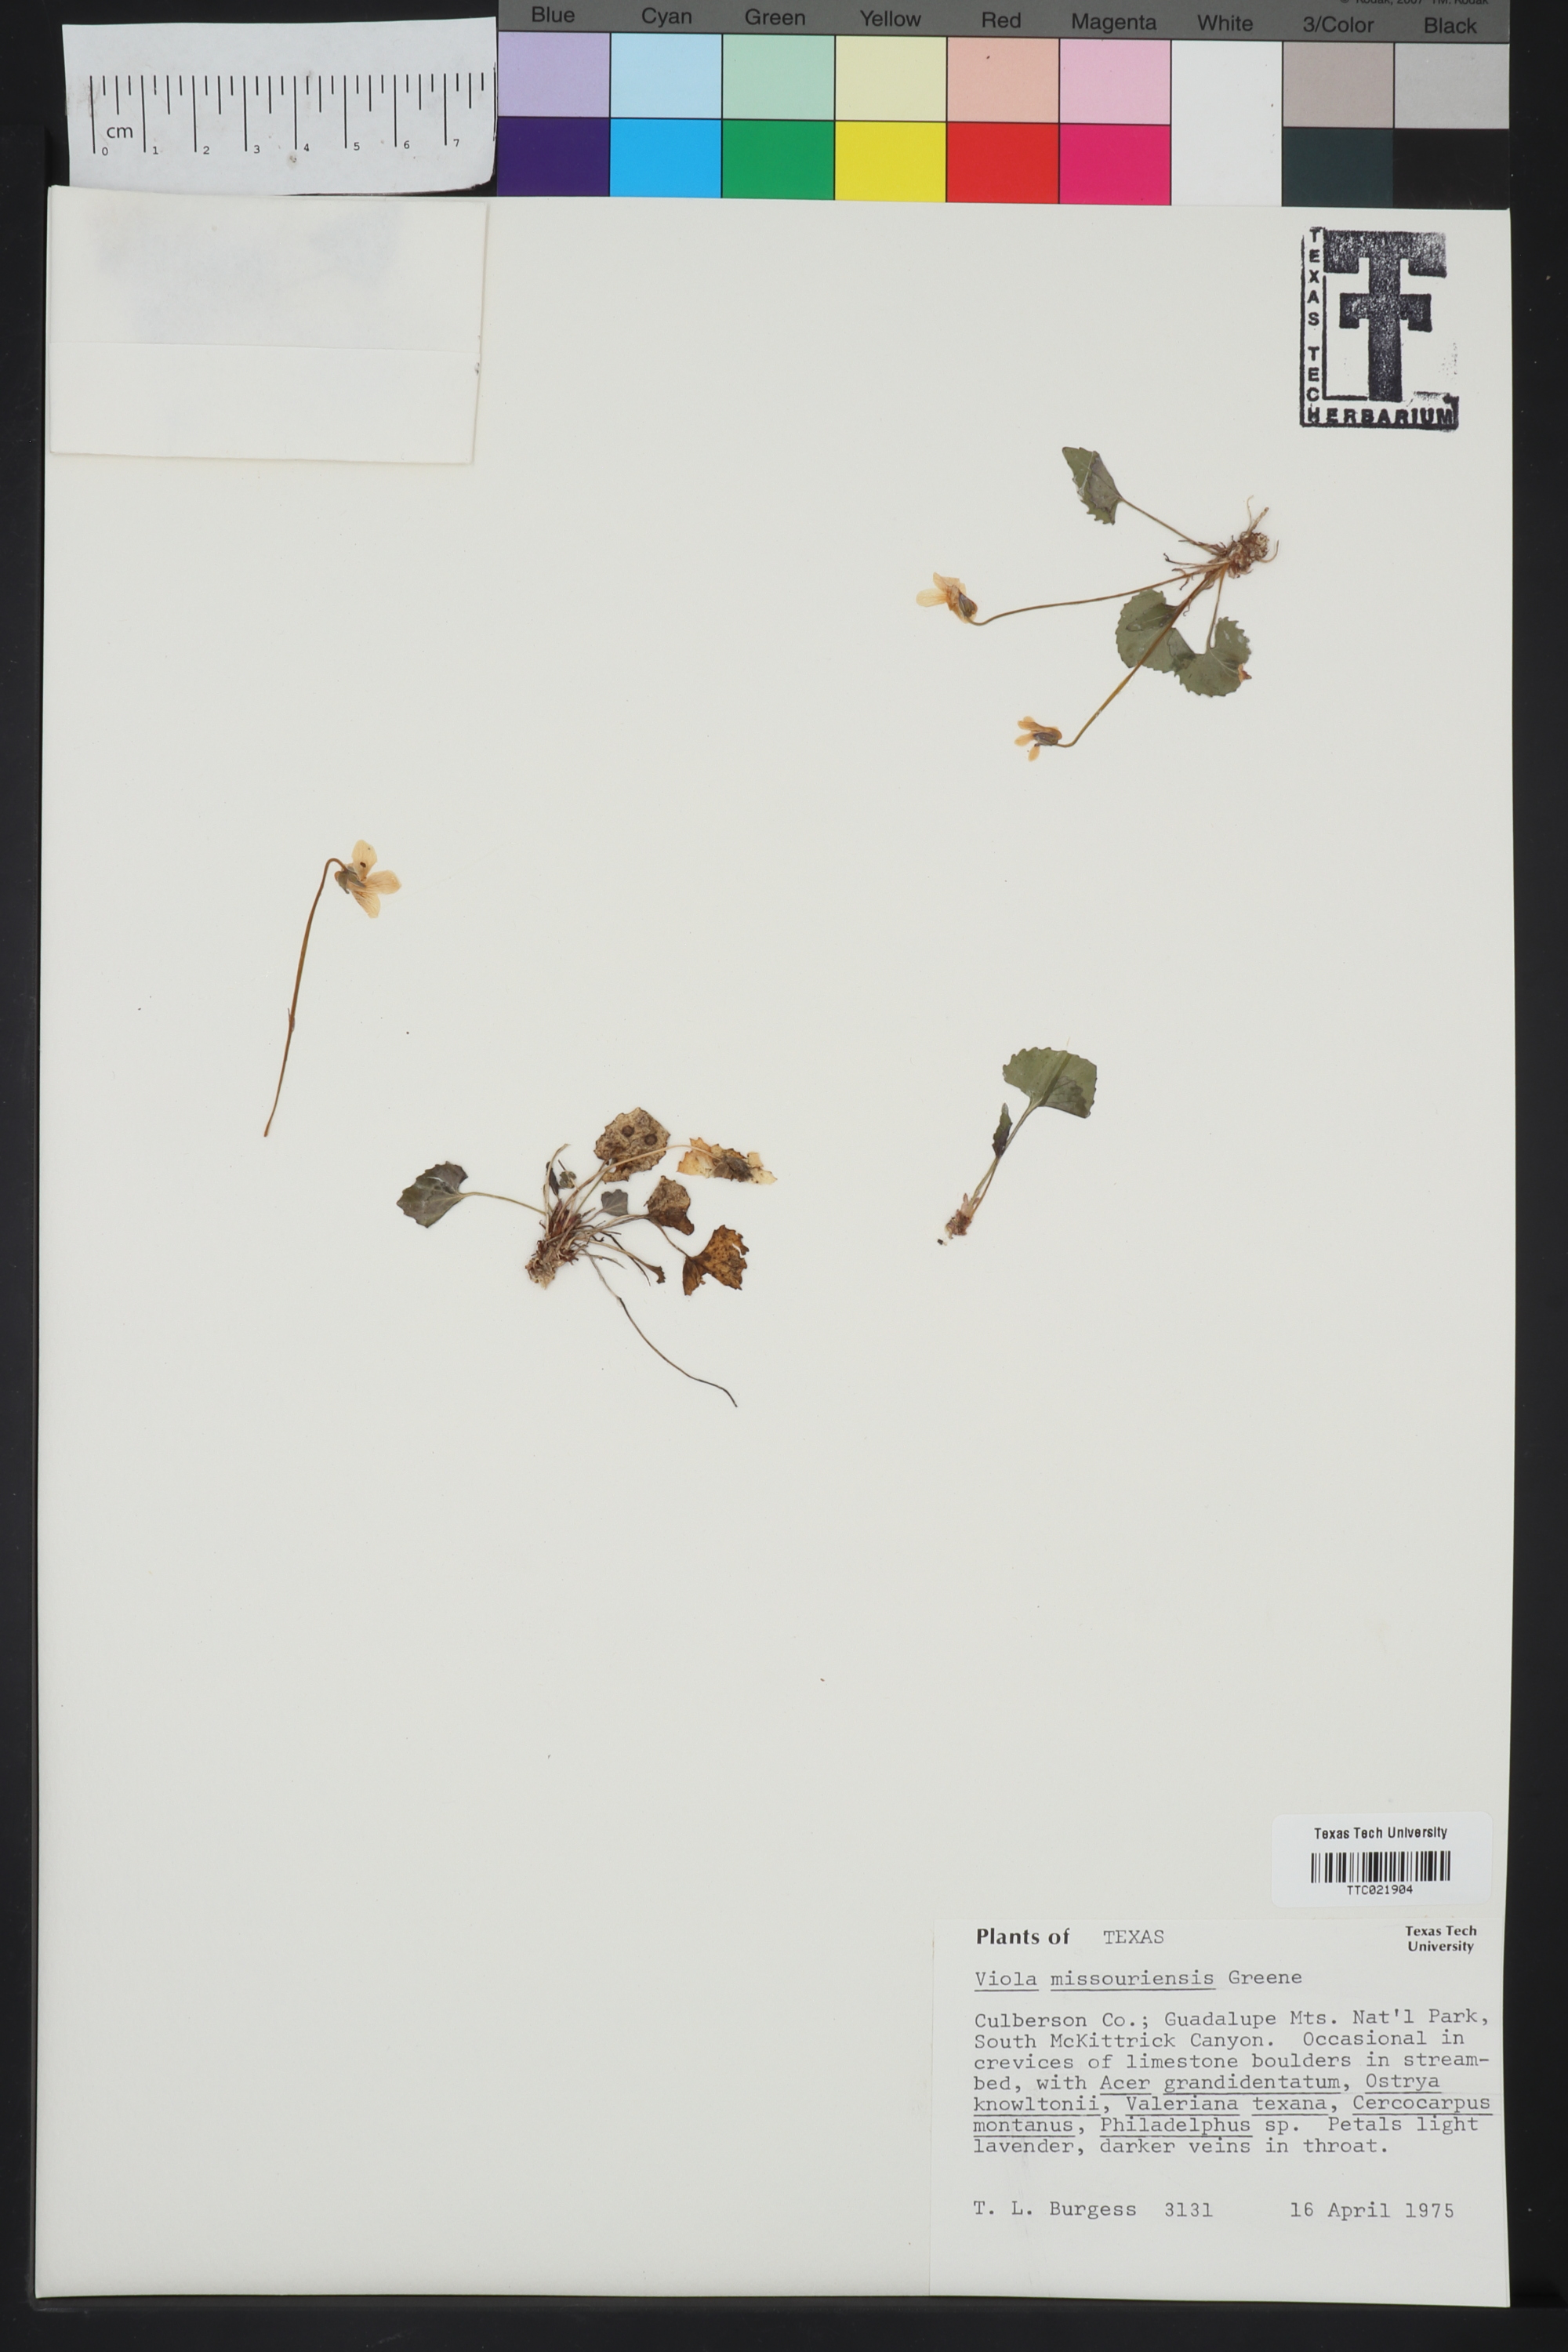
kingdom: Plantae
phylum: Tracheophyta
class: Magnoliopsida
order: Malpighiales
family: Violaceae
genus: Viola
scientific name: Viola missouriensis
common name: Missouri violet
